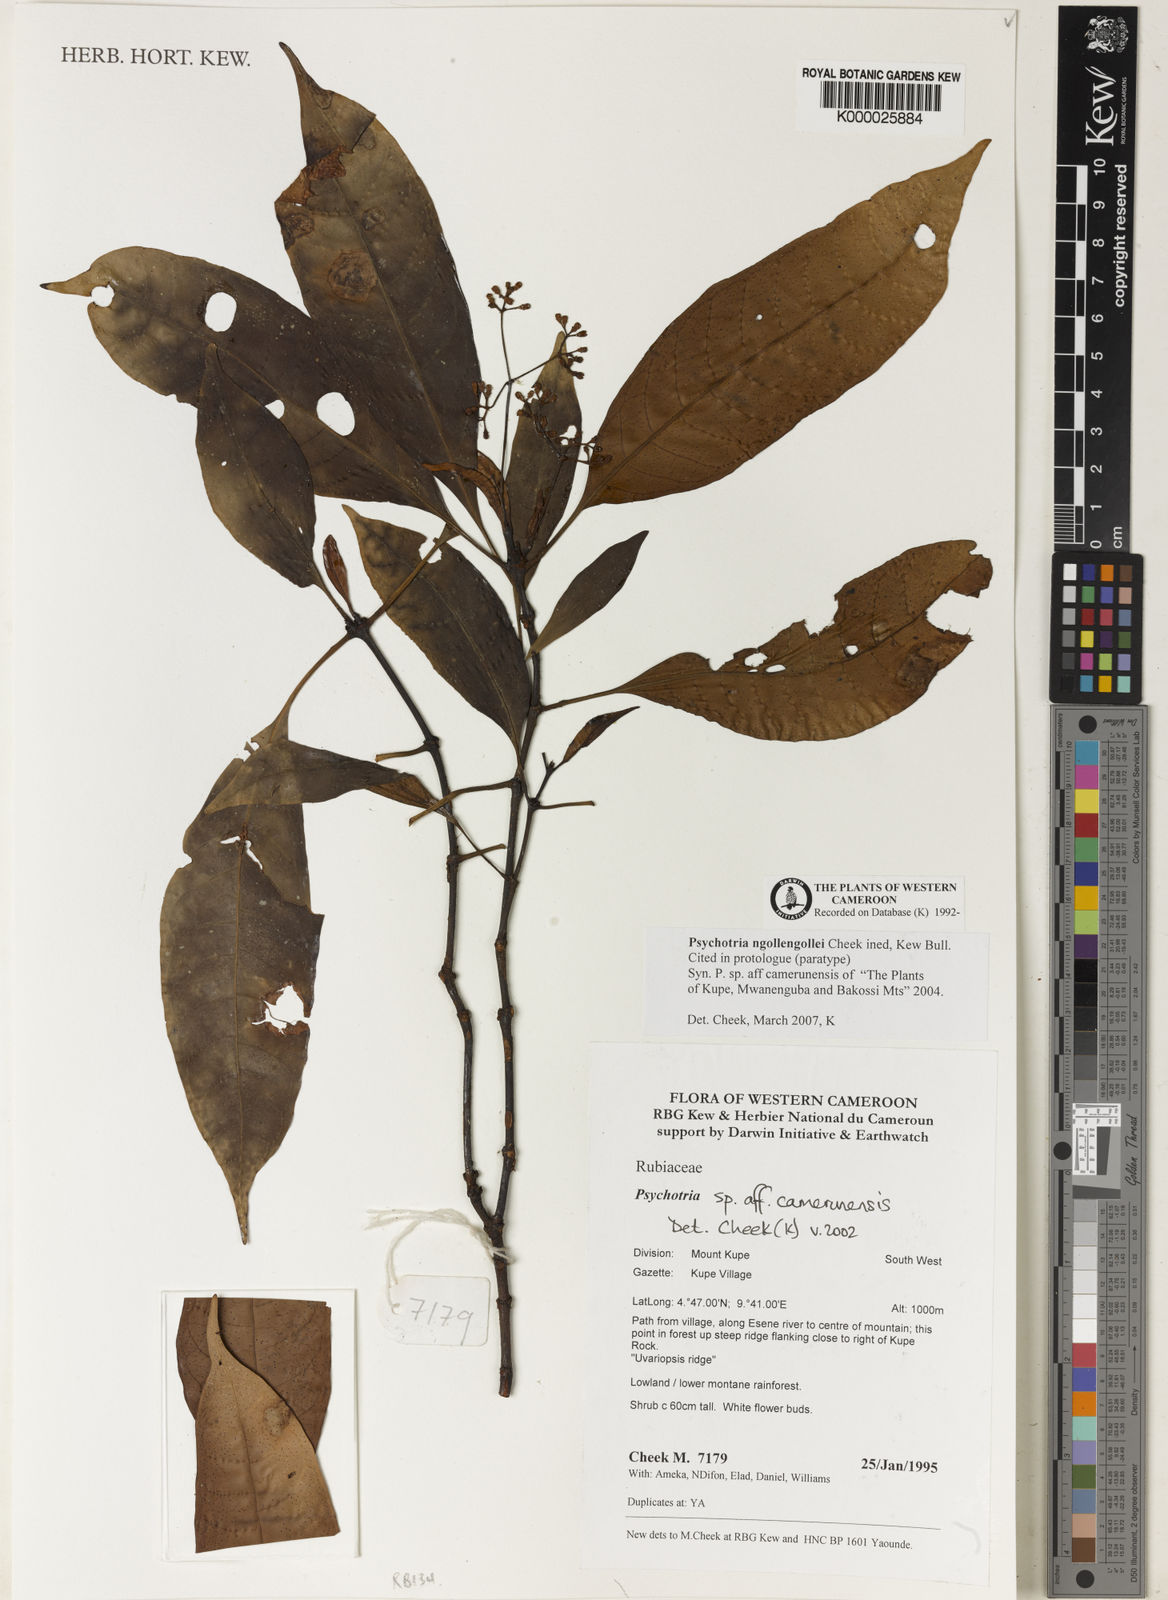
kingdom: Plantae
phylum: Tracheophyta
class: Magnoliopsida
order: Gentianales
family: Rubiaceae
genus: Psychotria
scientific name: Psychotria solfiana
